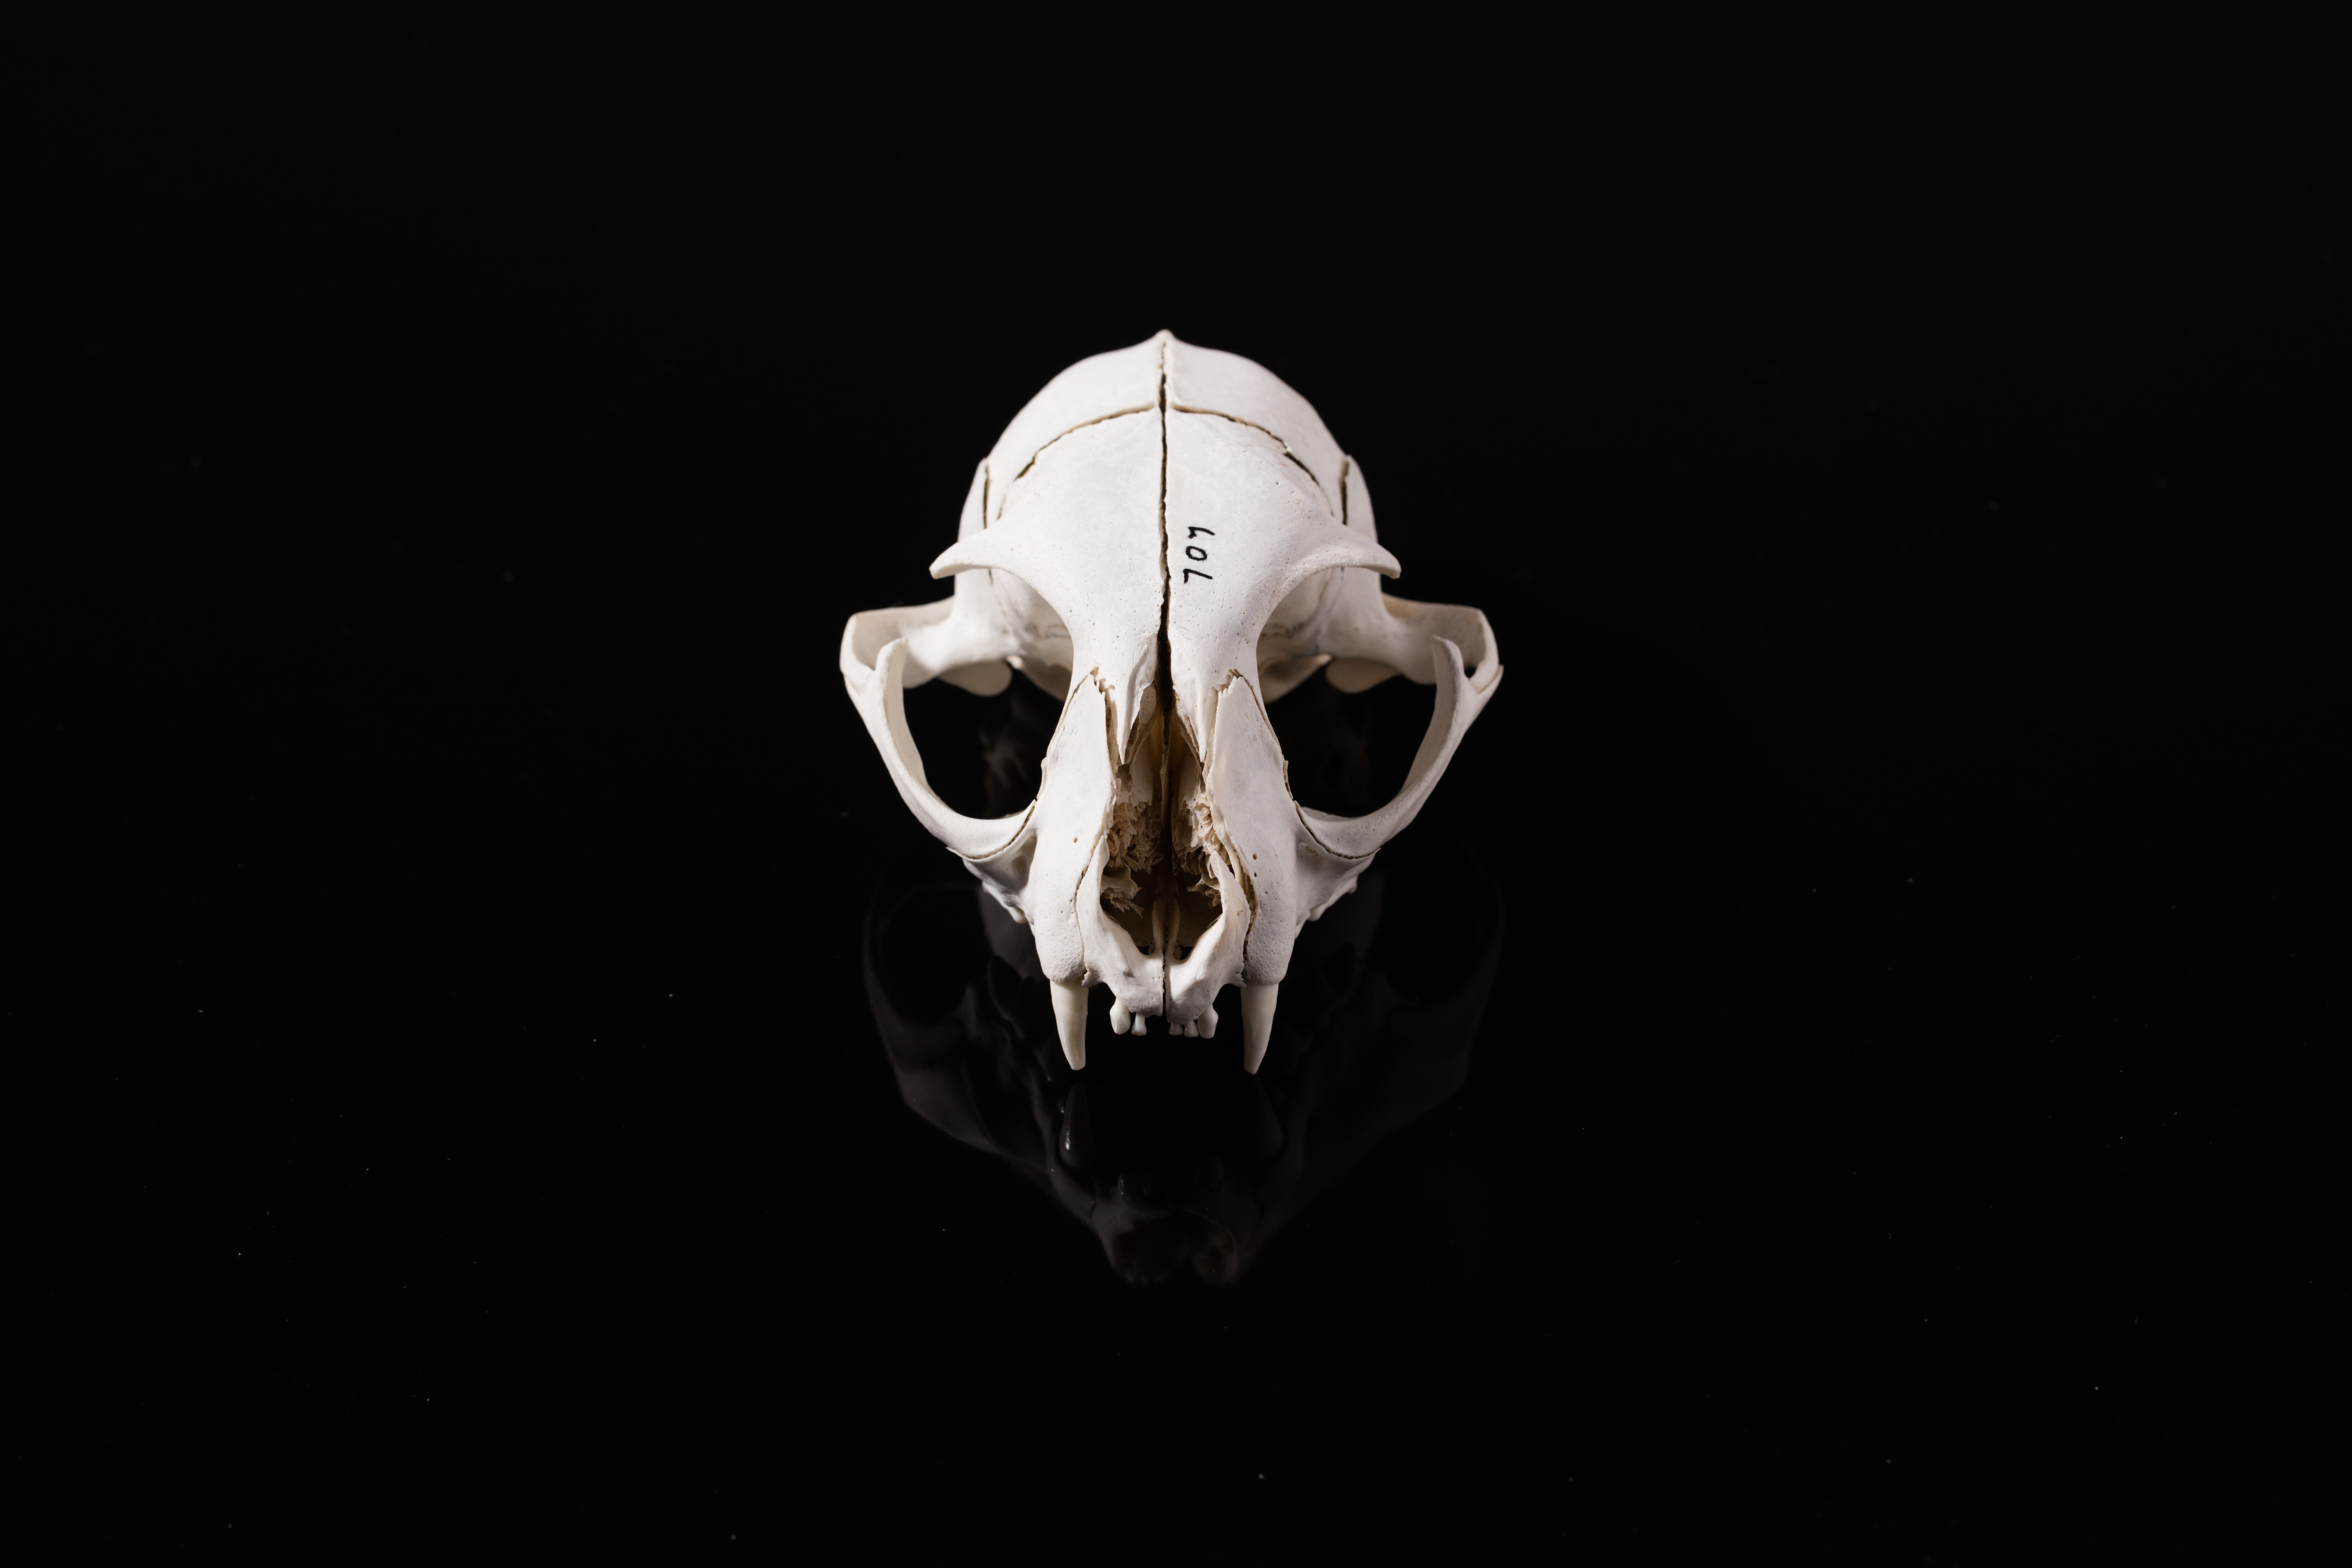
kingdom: Animalia
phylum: Chordata
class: Mammalia
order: Carnivora
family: Felidae
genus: Felis
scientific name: Felis catus
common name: Domestic cat
